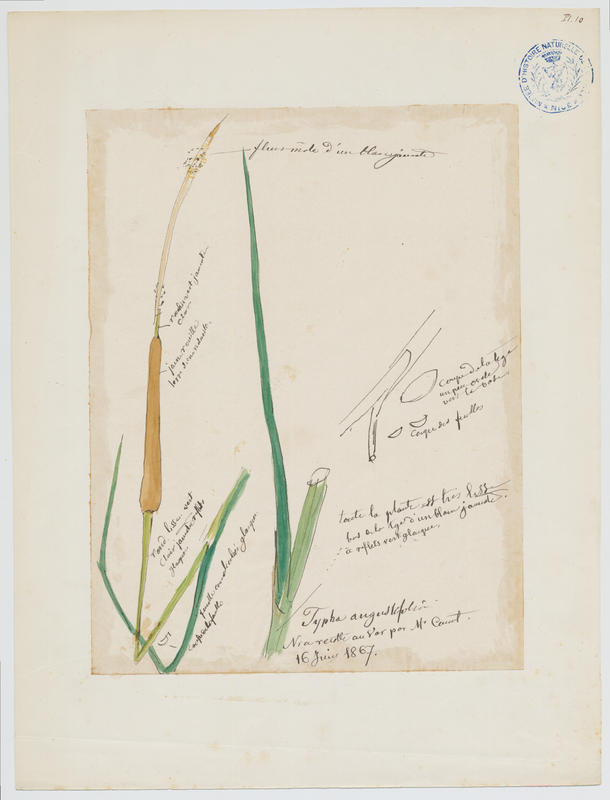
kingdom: Plantae
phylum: Tracheophyta
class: Liliopsida
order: Poales
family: Typhaceae
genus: Typha
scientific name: Typha angustifolia
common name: Lesser bulrush
